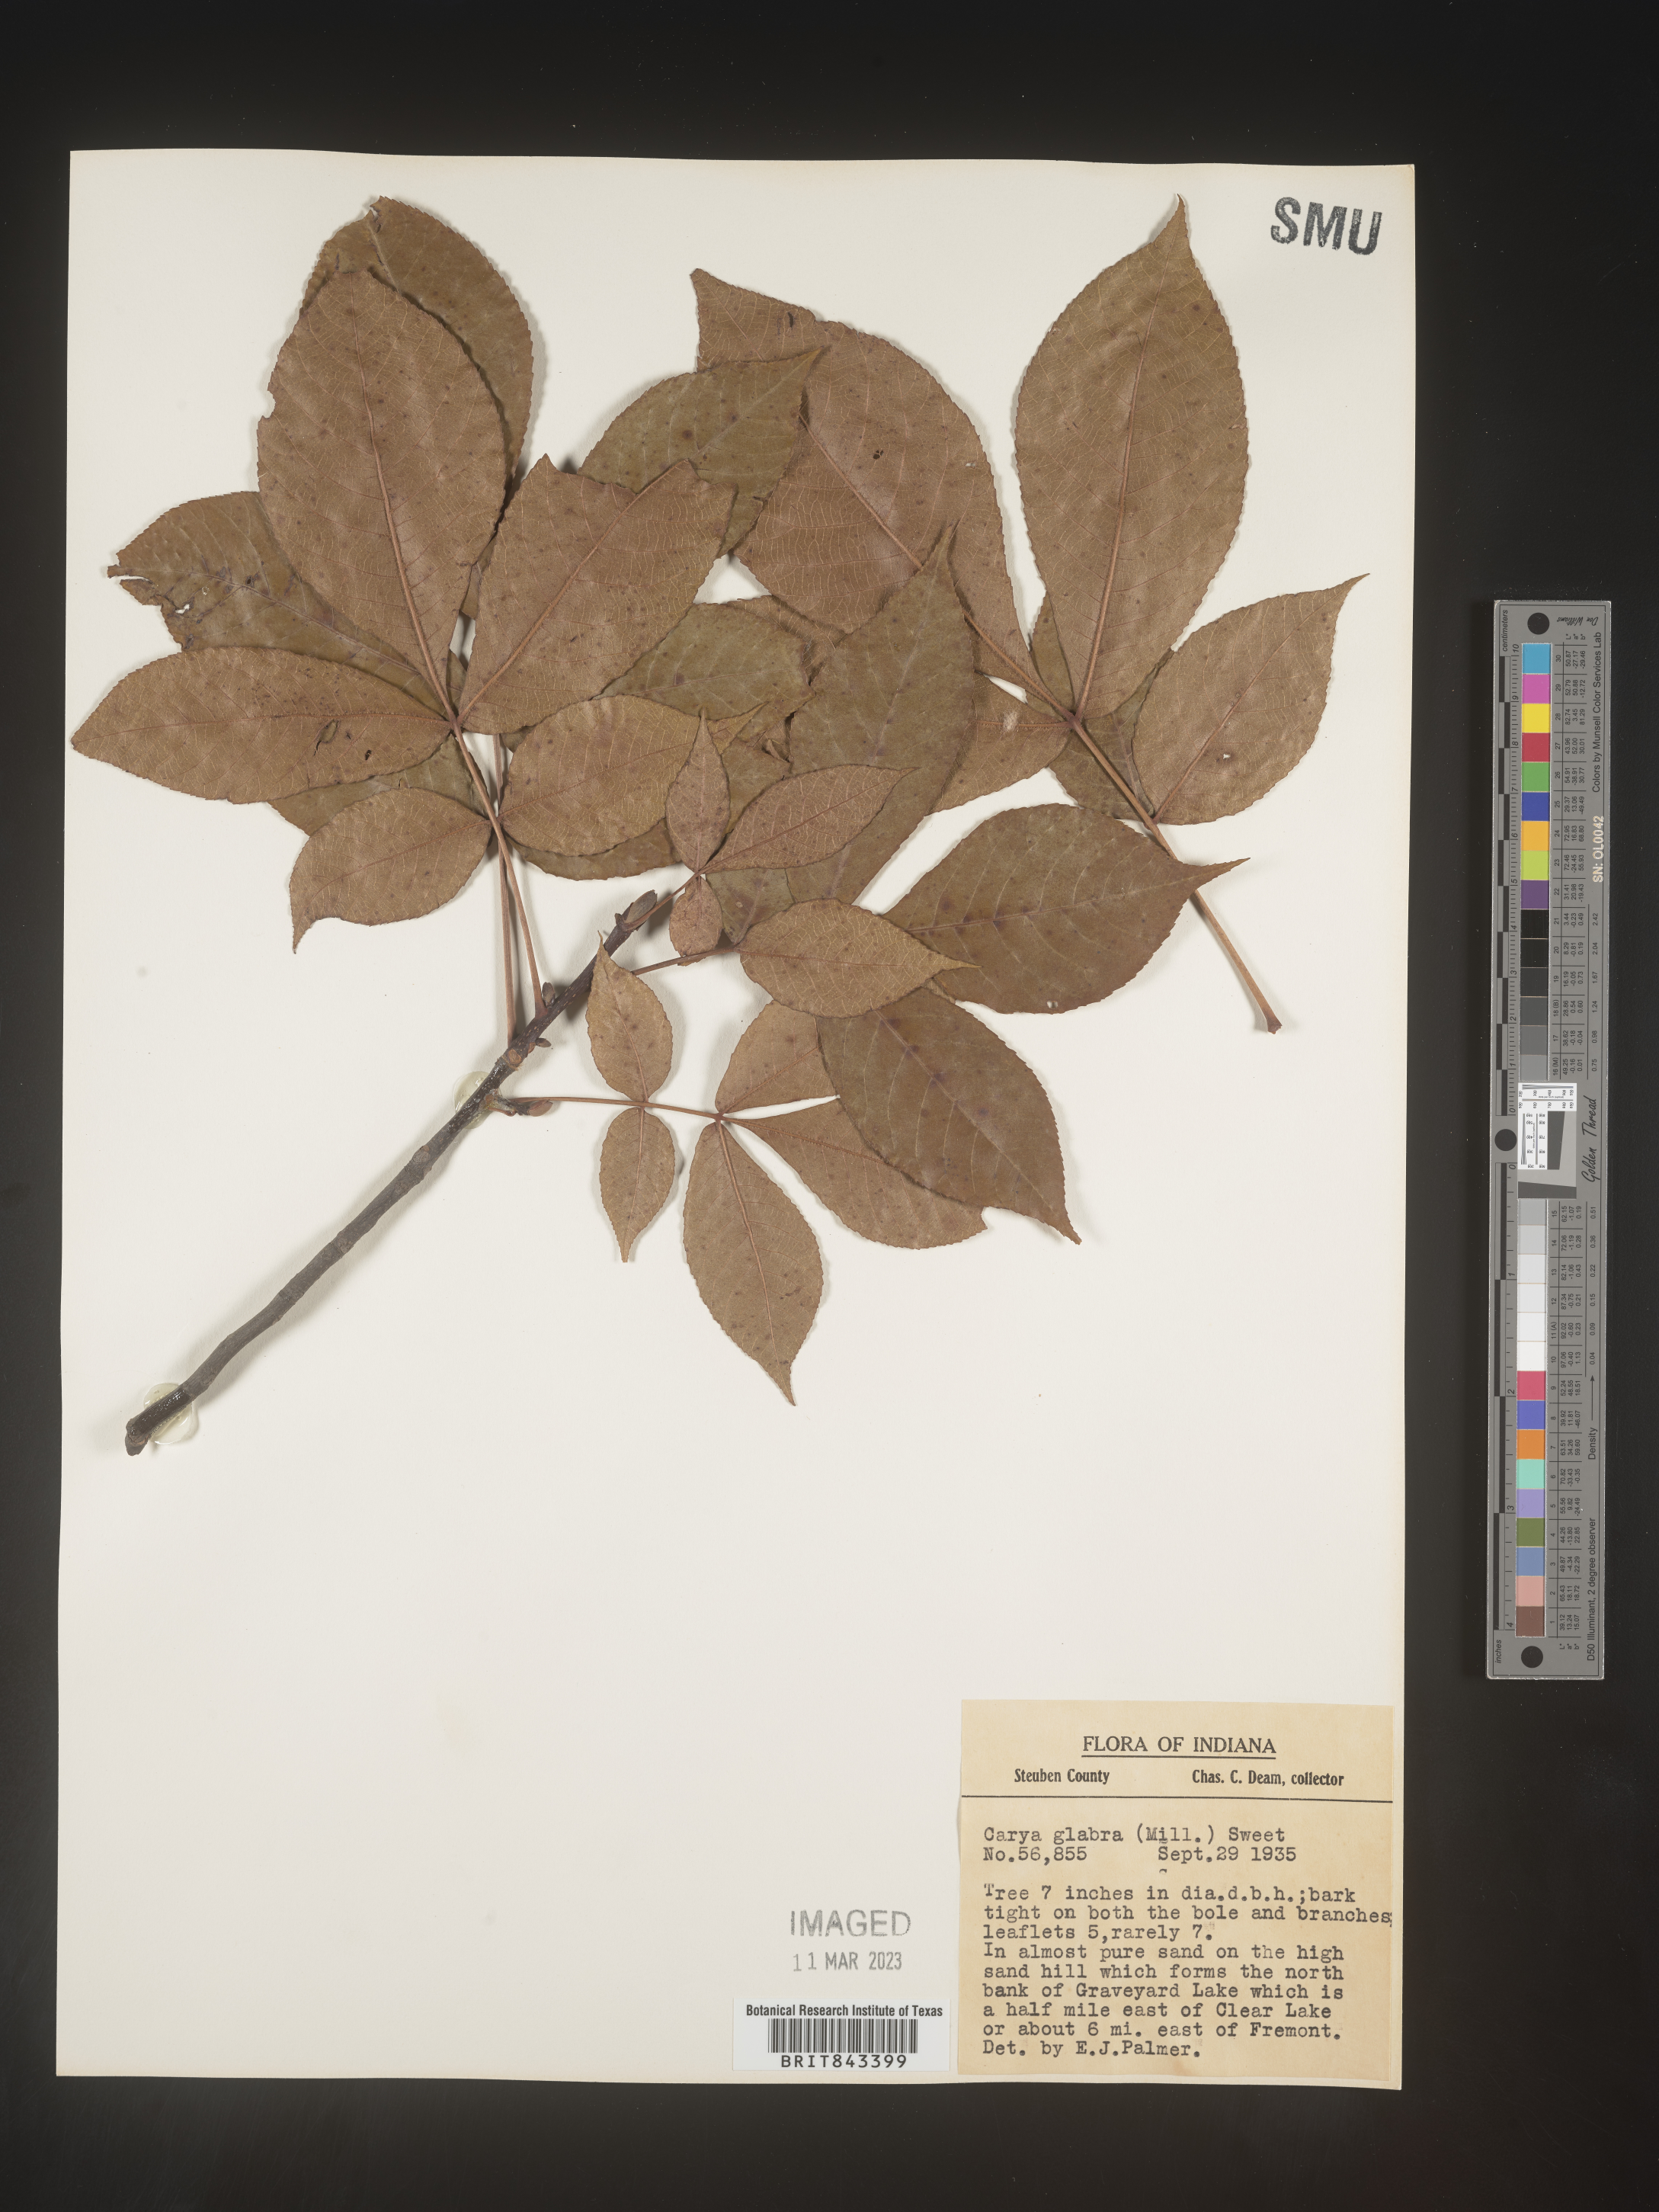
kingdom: Plantae
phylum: Tracheophyta
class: Magnoliopsida
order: Fagales
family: Juglandaceae
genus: Carya
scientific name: Carya glabra
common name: Pignut hickory
